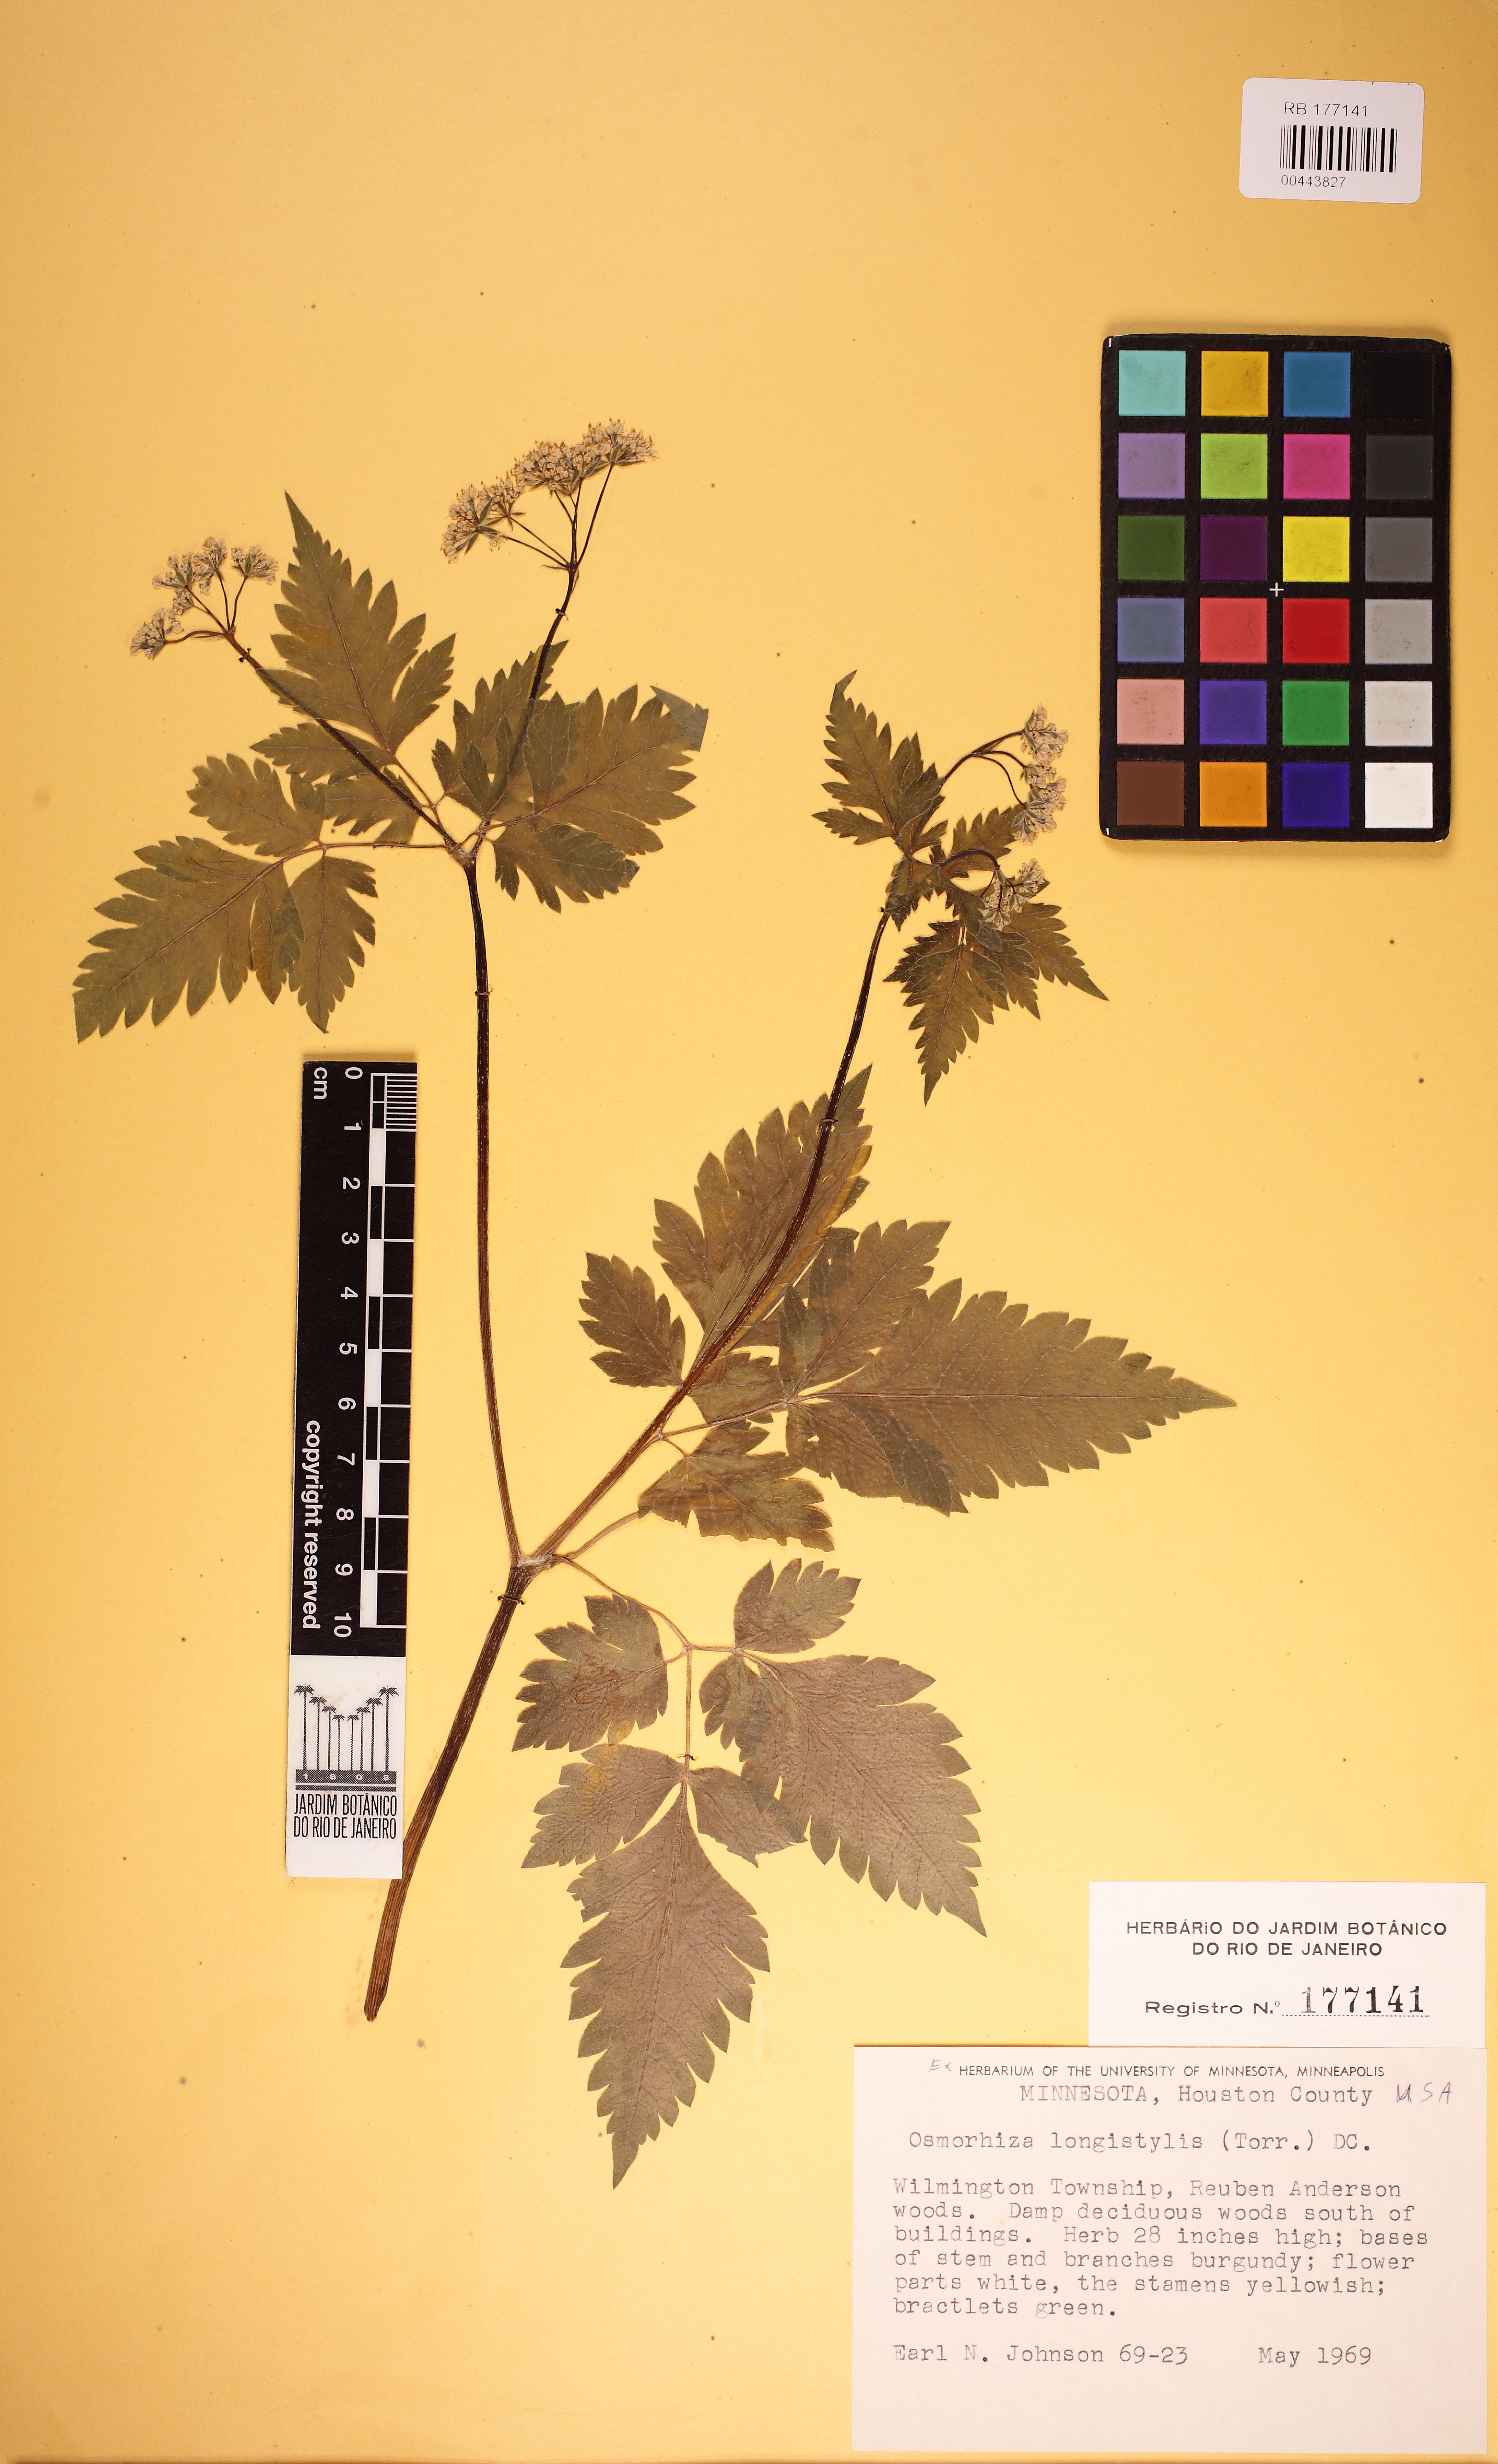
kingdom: Plantae
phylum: Tracheophyta
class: Magnoliopsida
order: Apiales
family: Apiaceae
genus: Osmorhiza
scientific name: Osmorhiza longistylis
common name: Smooth sweet cicely
